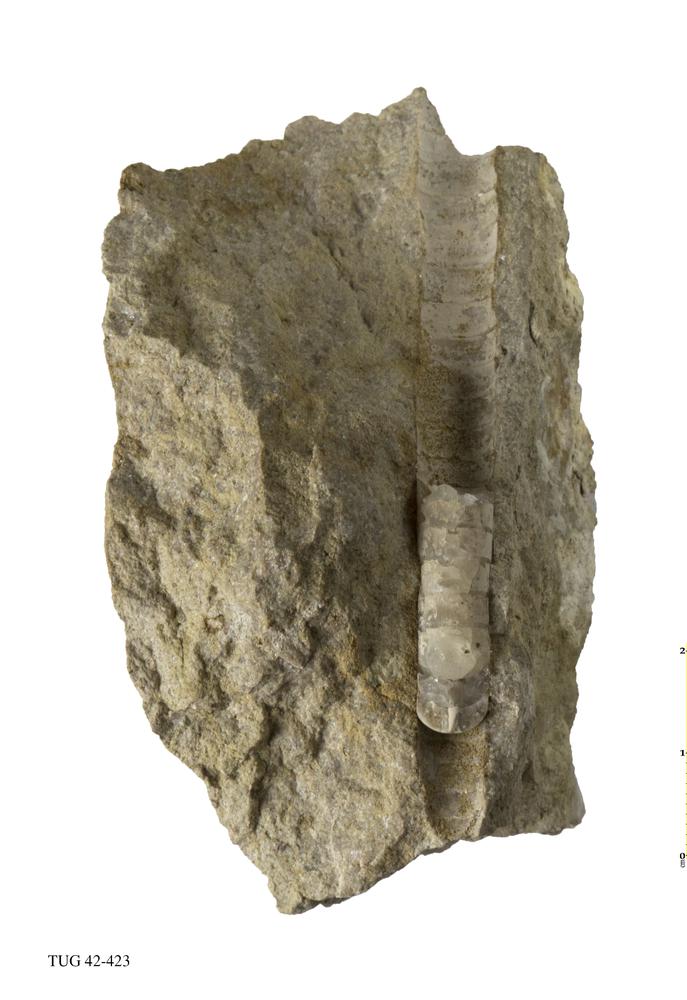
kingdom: Animalia
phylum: Mollusca
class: Cephalopoda
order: Orthocerida
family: Orthoceratidae
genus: Orthoceras
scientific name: Orthoceras regulare
